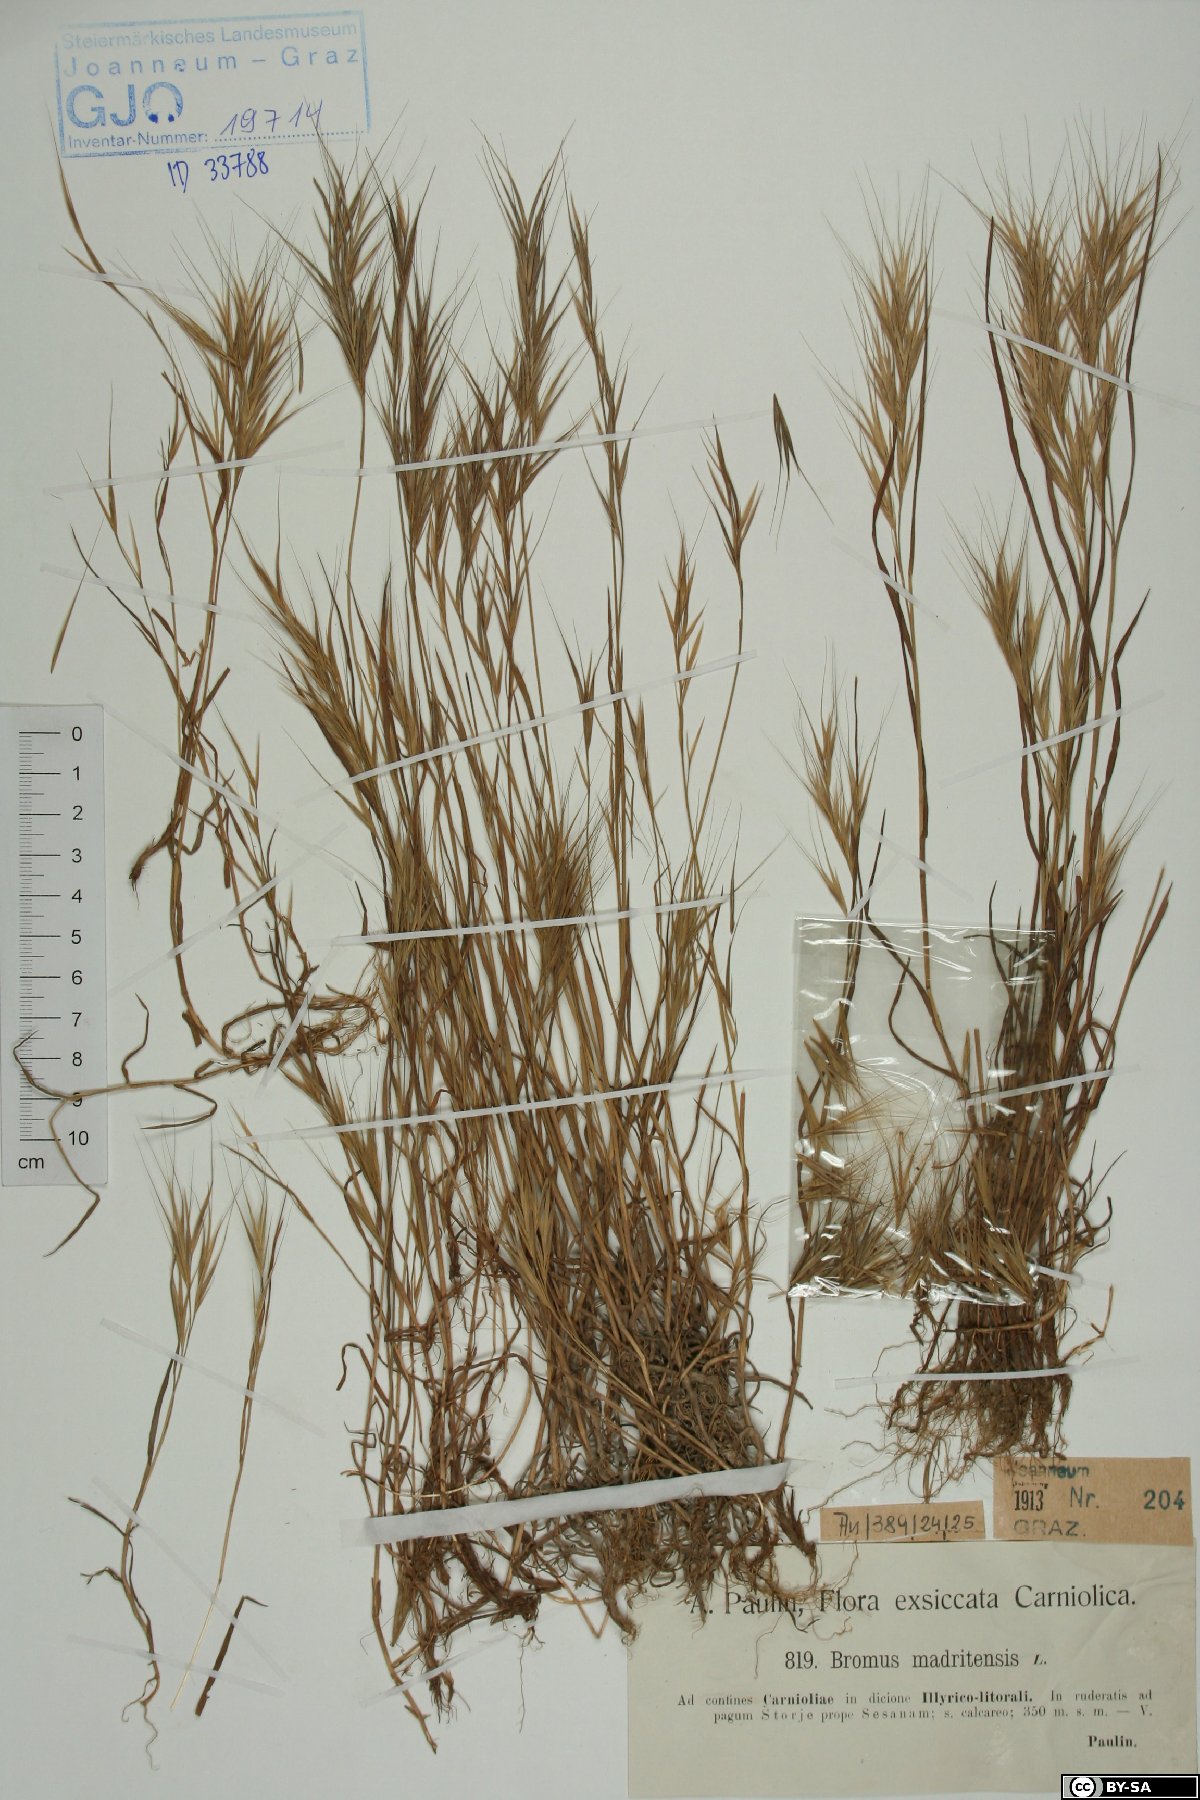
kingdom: Plantae
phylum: Tracheophyta
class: Liliopsida
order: Poales
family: Poaceae
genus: Bromus
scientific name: Bromus madritensis
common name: Compact brome
